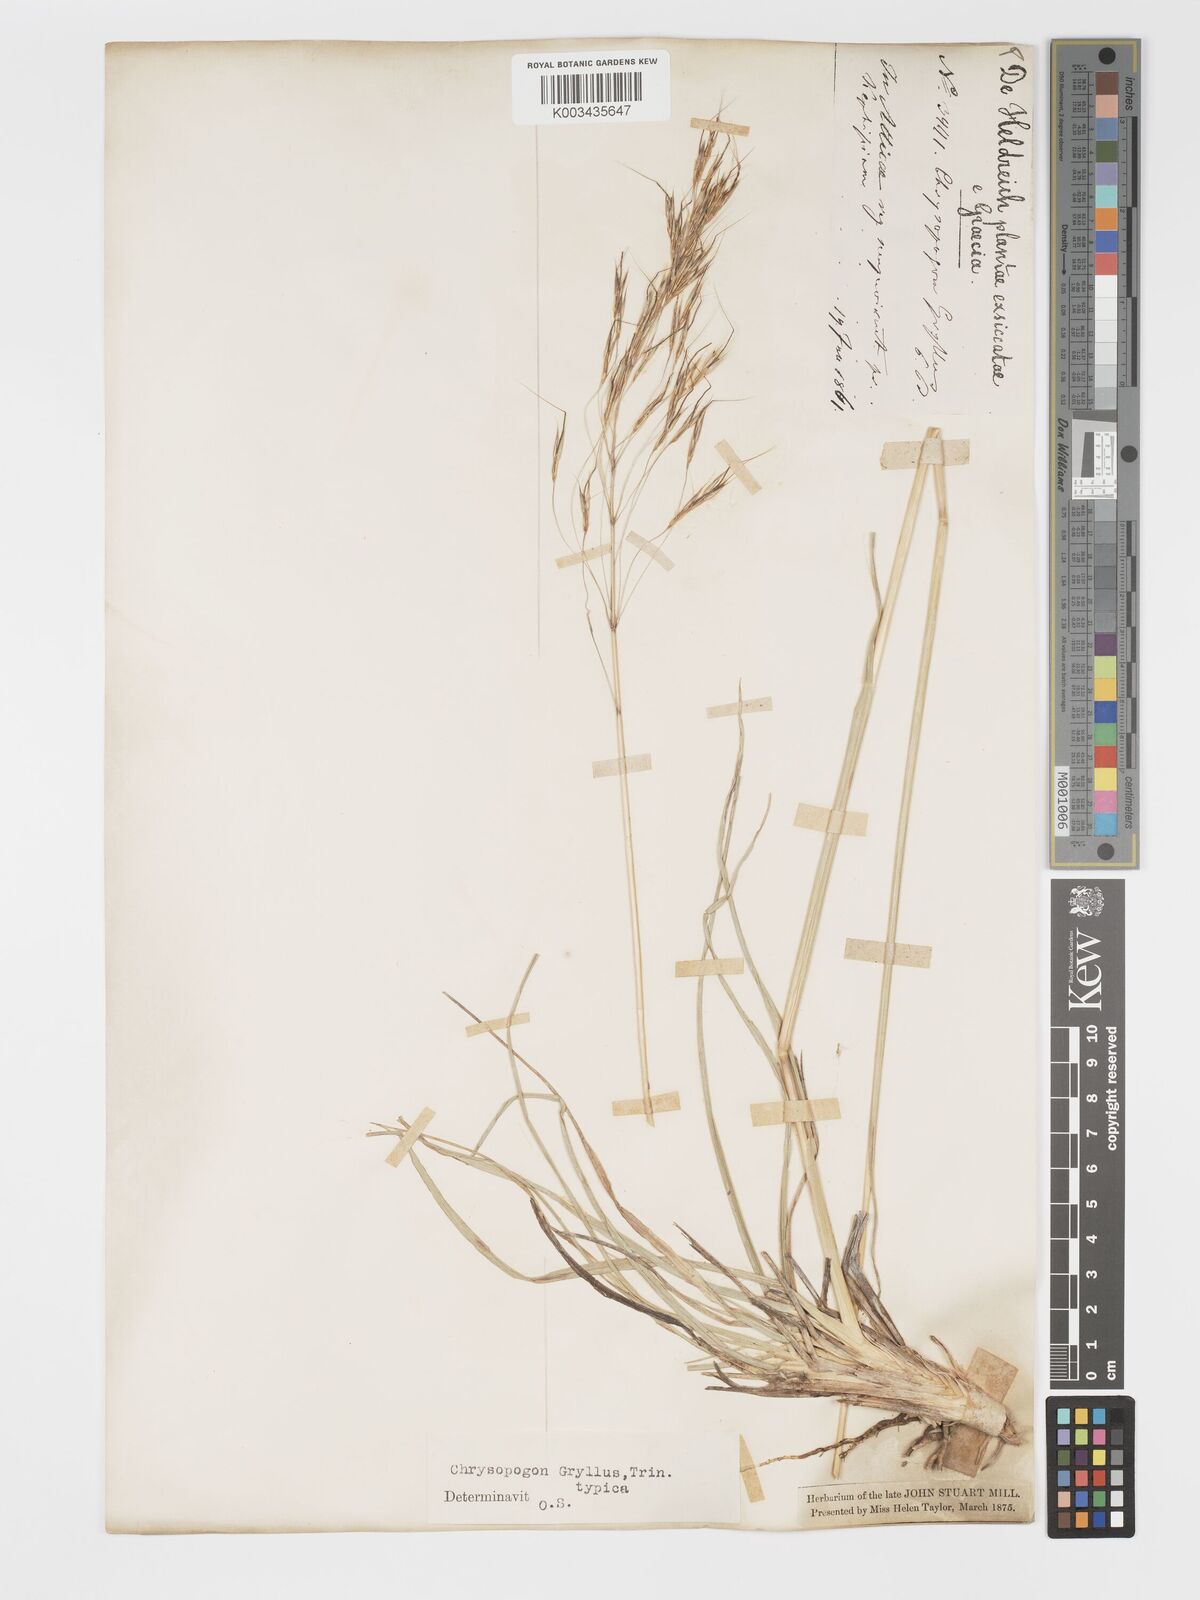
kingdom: Plantae
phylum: Tracheophyta
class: Liliopsida
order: Poales
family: Poaceae
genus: Chrysopogon
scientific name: Chrysopogon gryllus
